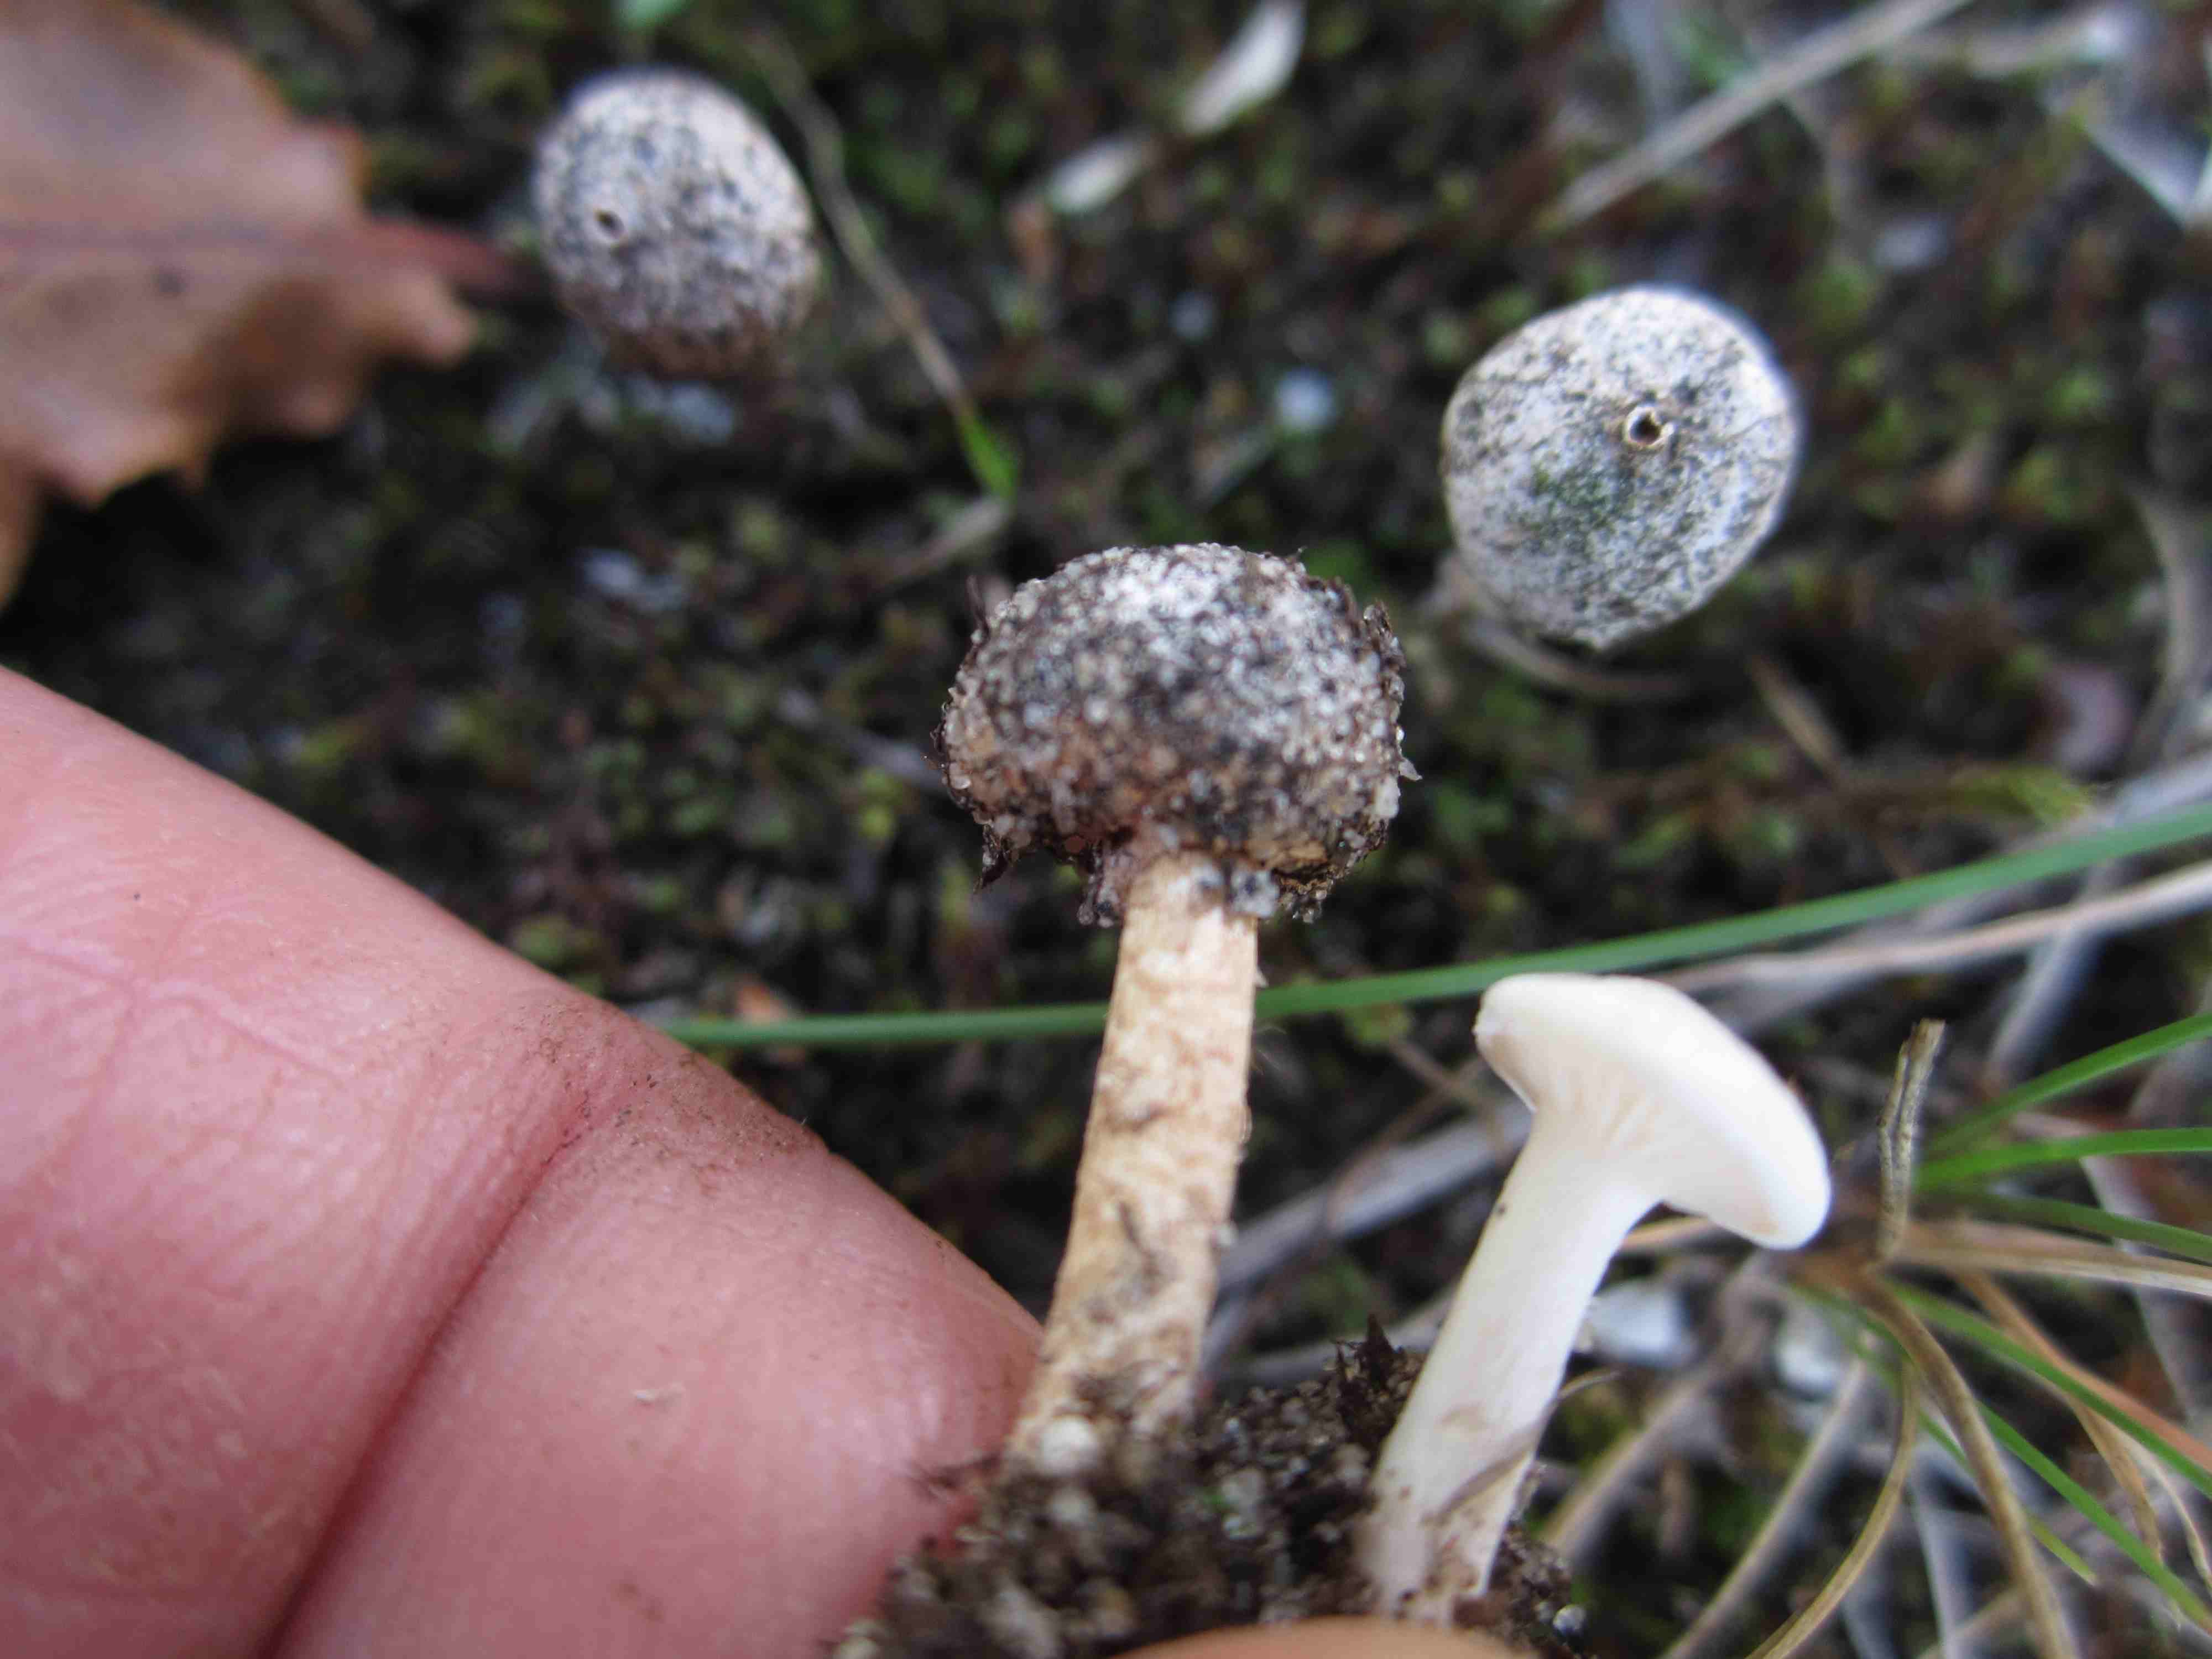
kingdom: Fungi
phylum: Basidiomycota
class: Agaricomycetes
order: Agaricales
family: Agaricaceae
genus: Tulostoma
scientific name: Tulostoma brumale
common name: vinter-stilkbovist
